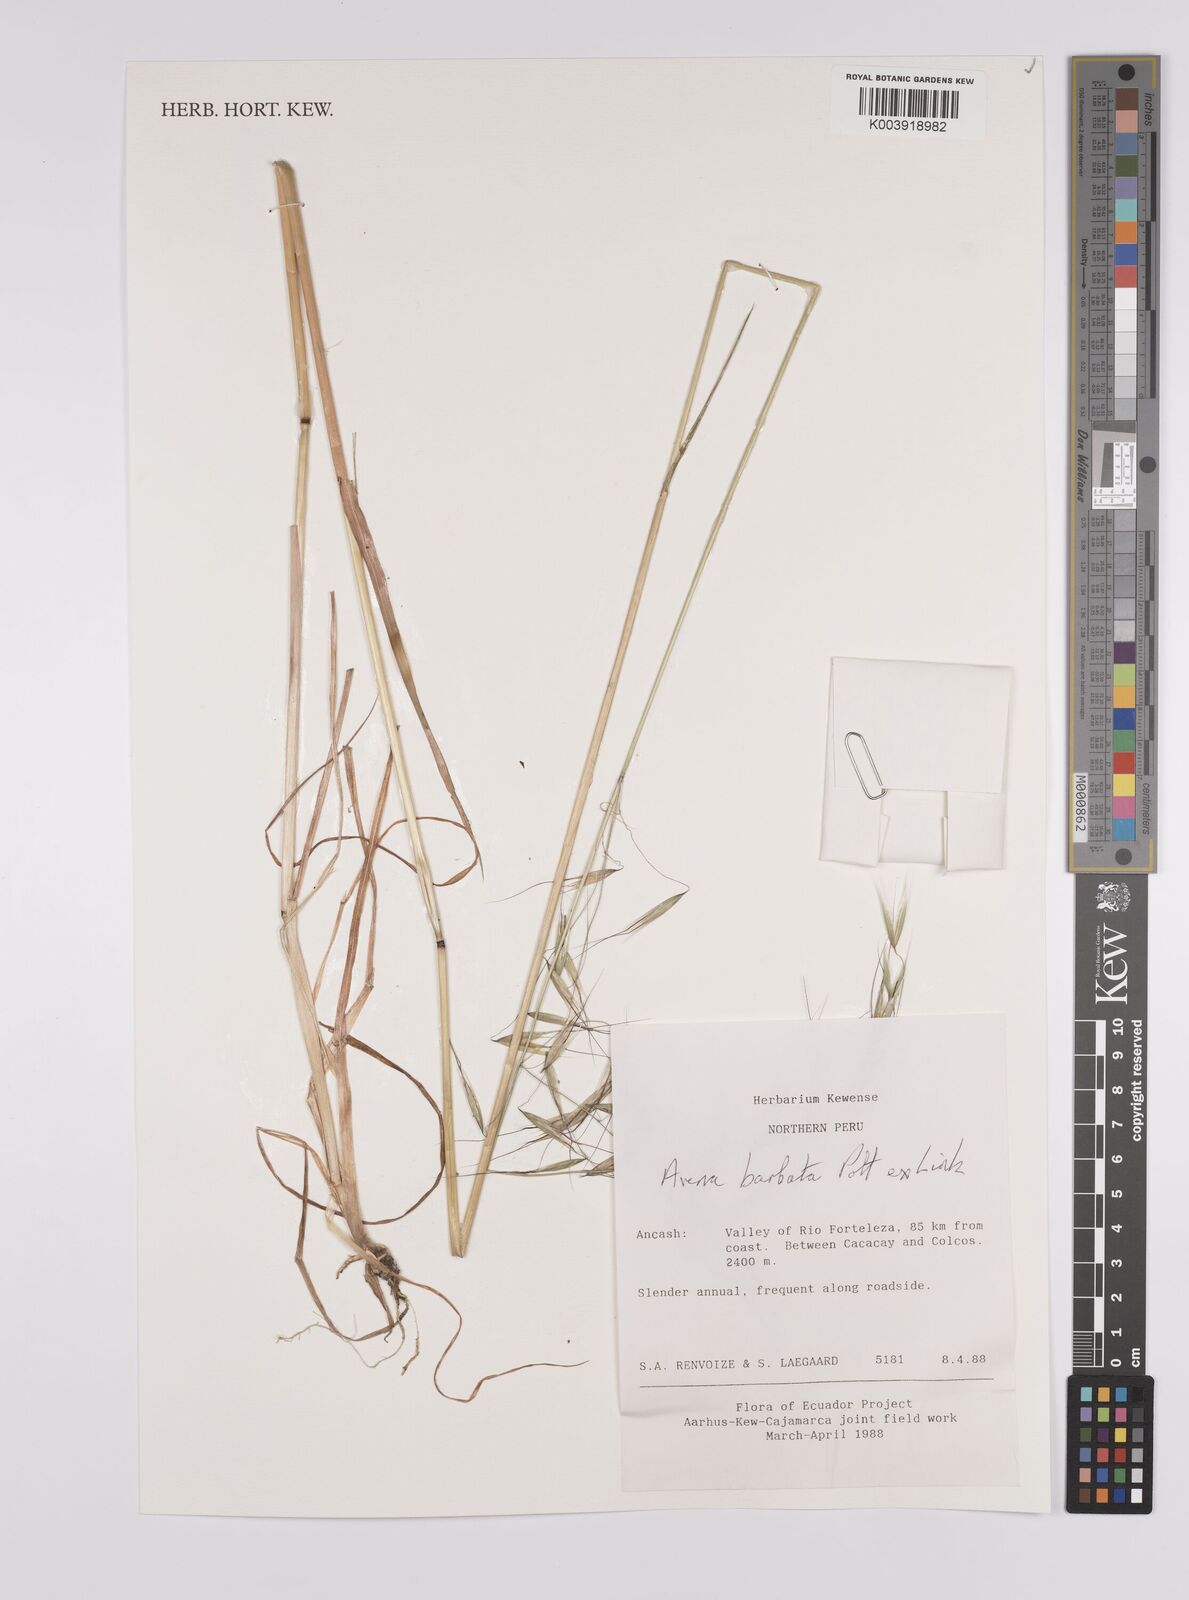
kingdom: Plantae
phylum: Tracheophyta
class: Liliopsida
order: Poales
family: Poaceae
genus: Avena
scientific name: Avena barbata
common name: Slender oat
